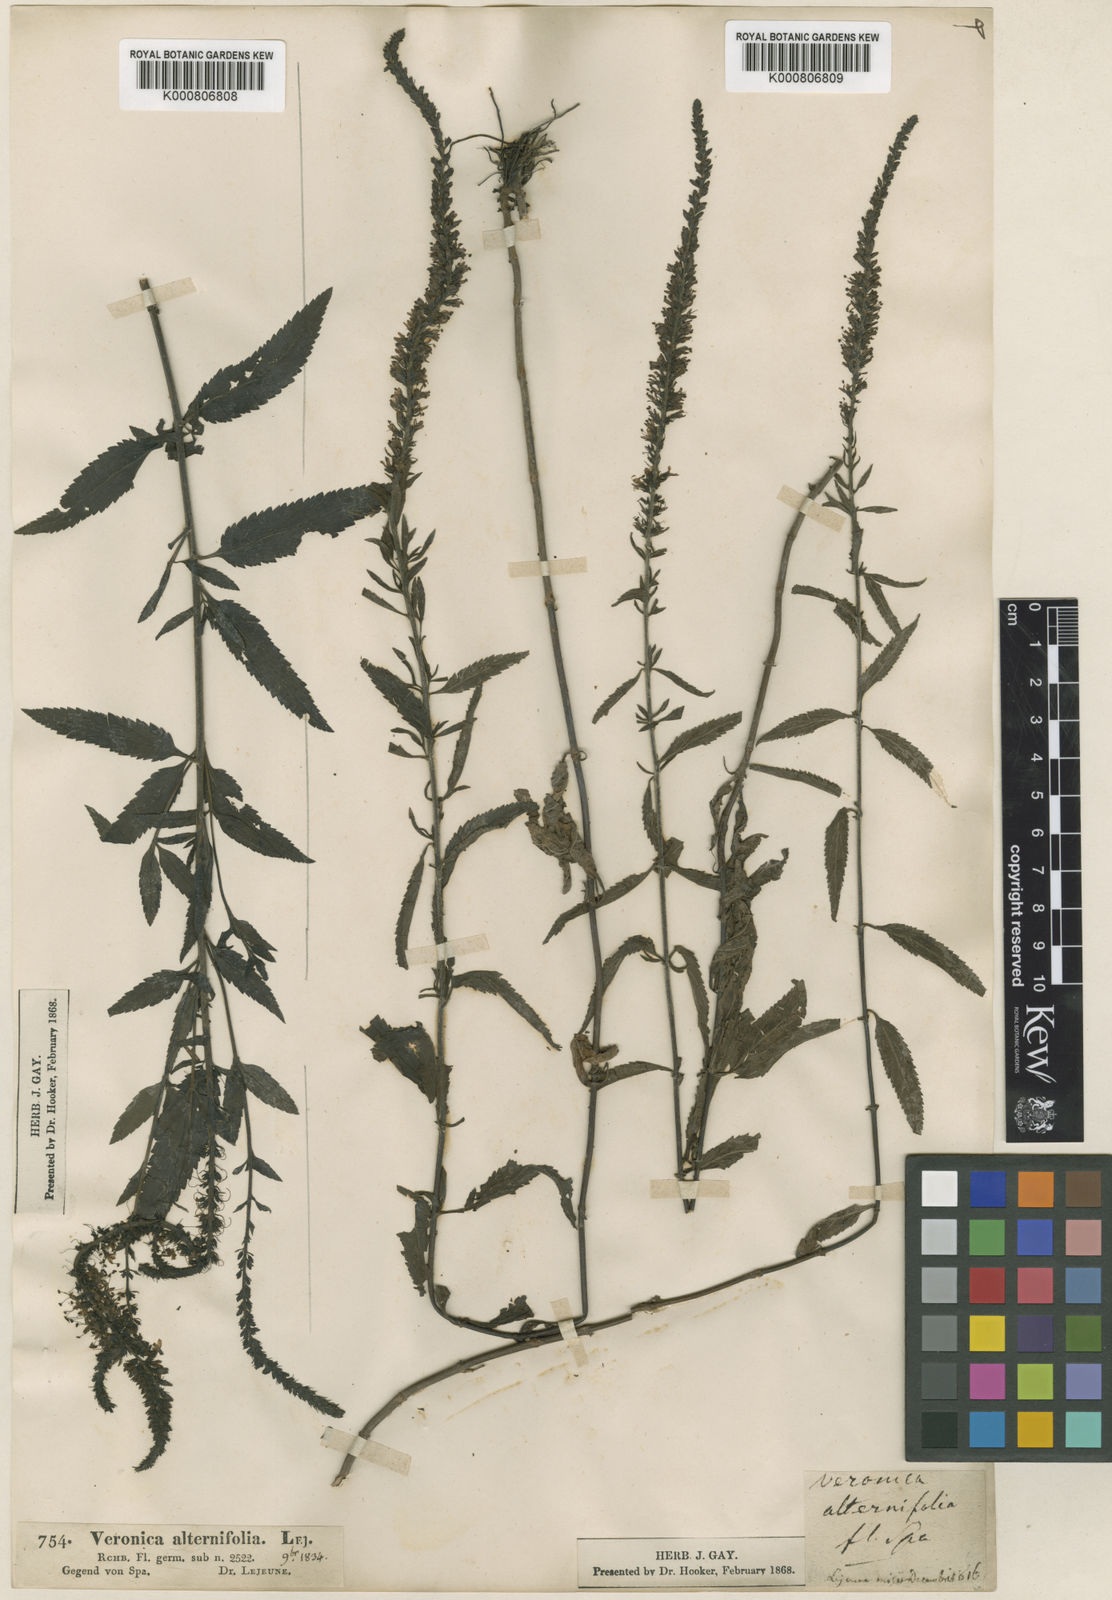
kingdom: Plantae
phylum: Tracheophyta
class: Magnoliopsida
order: Lamiales
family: Plantaginaceae
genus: Veronica
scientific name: Veronica longifolia
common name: Garden speedwell
